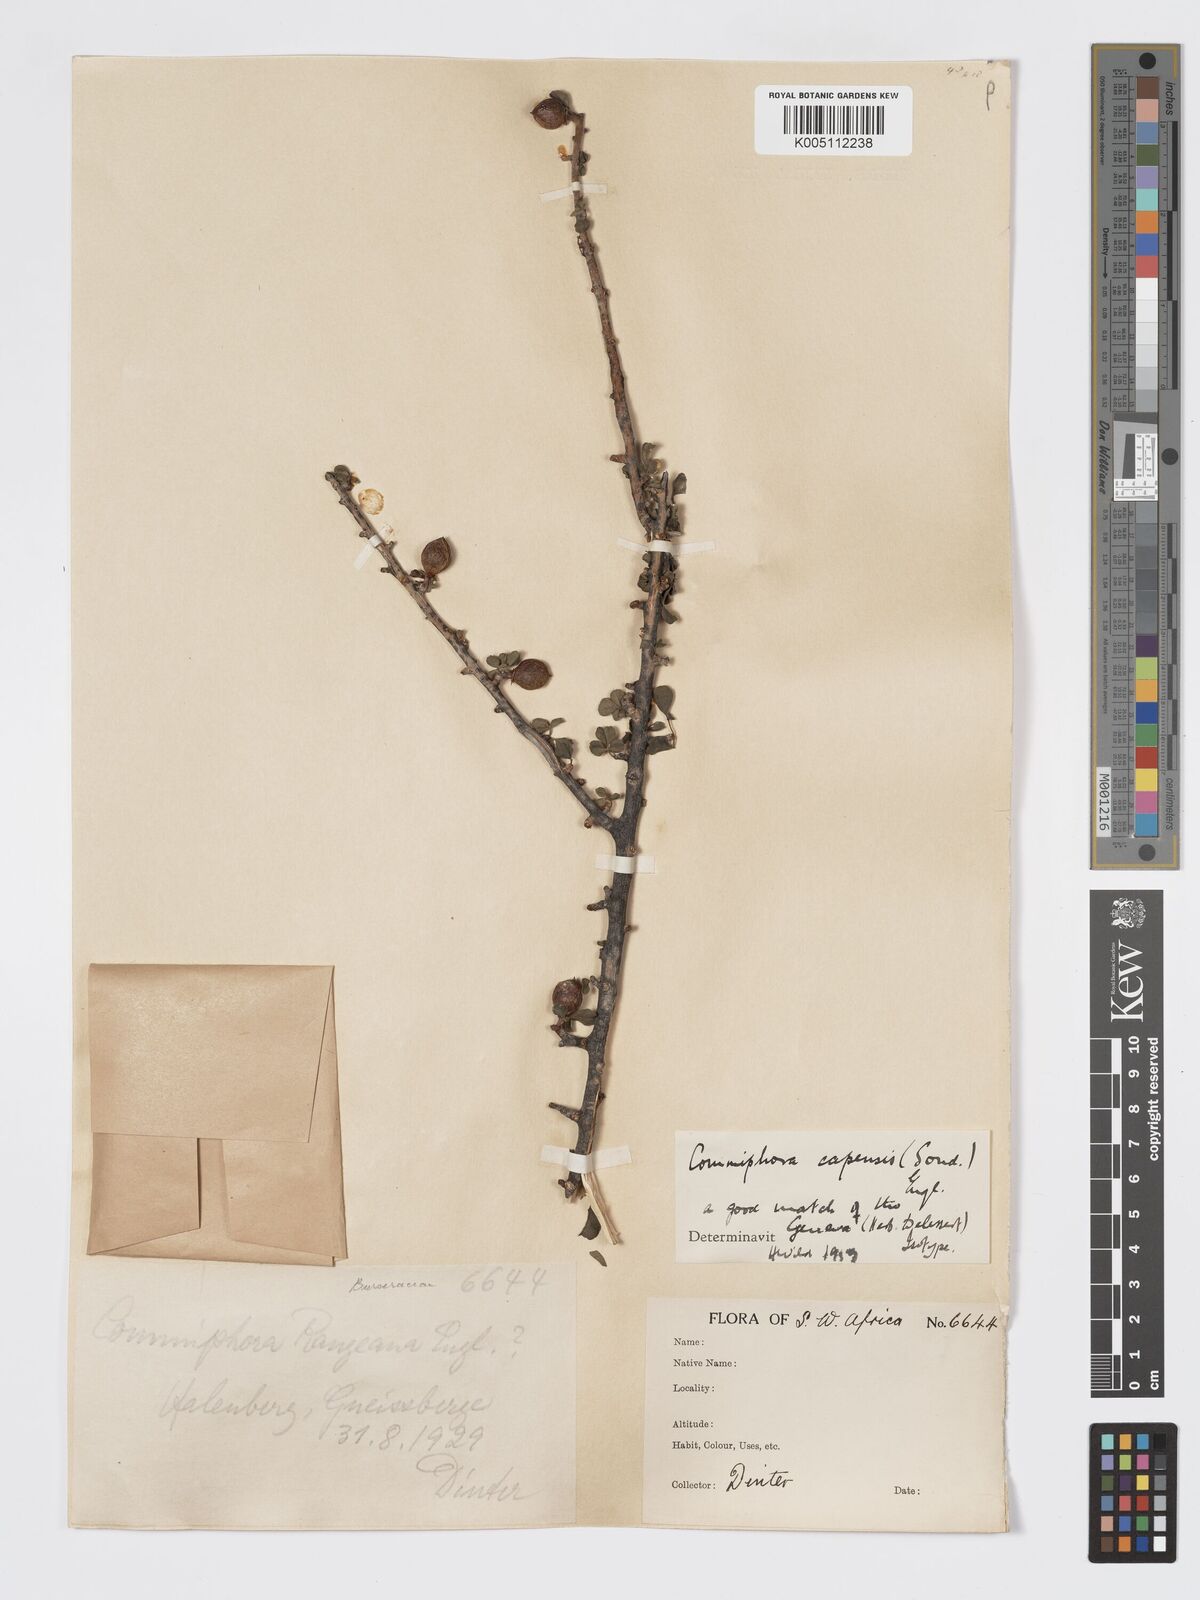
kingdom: Plantae
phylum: Tracheophyta
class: Magnoliopsida
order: Sapindales
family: Burseraceae
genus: Commiphora
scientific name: Commiphora capensis
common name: Namaqua commiphora
